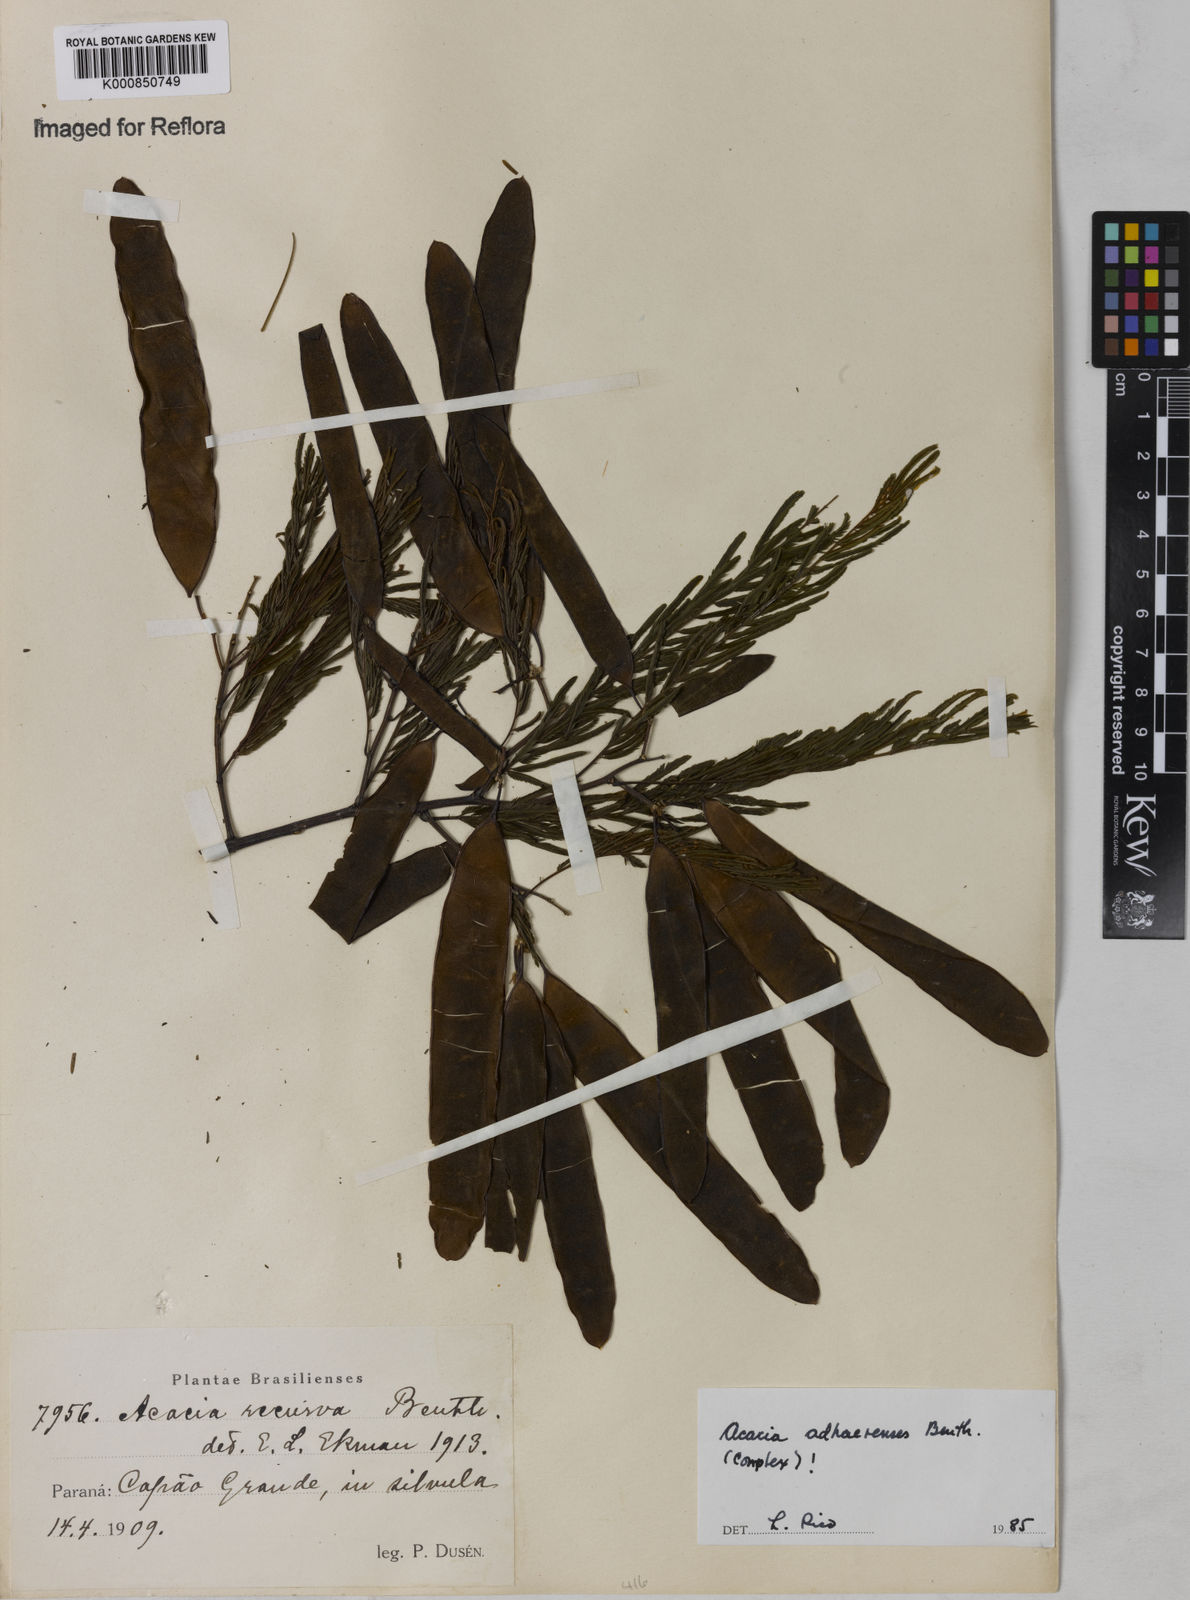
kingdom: Plantae
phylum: Tracheophyta
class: Magnoliopsida
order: Fabales
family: Fabaceae
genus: Senegalia
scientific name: Senegalia martiusiana
